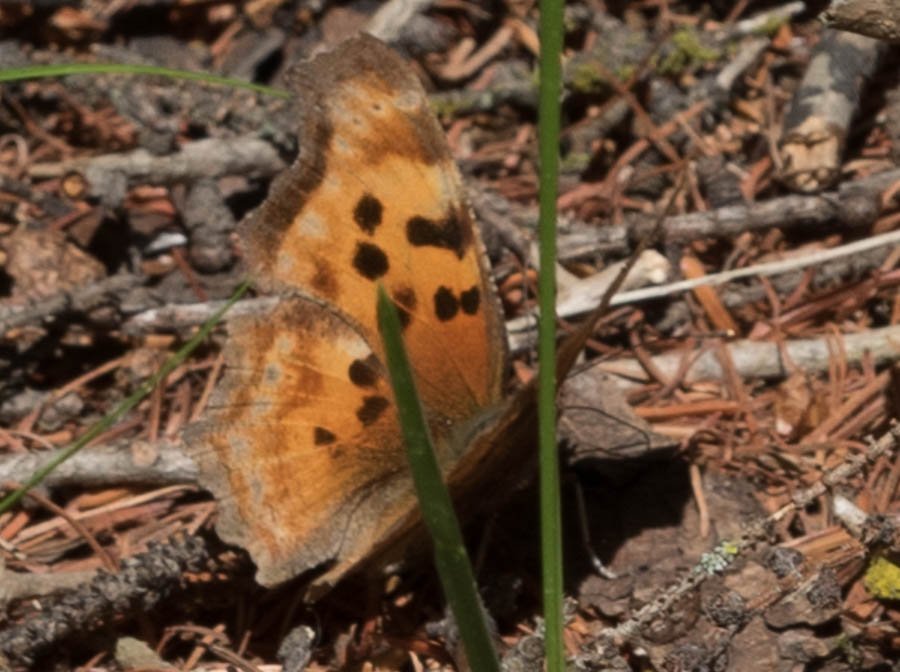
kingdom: Animalia
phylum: Arthropoda
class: Insecta
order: Lepidoptera
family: Nymphalidae
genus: Polygonia
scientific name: Polygonia satyrus
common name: Satyr Comma
